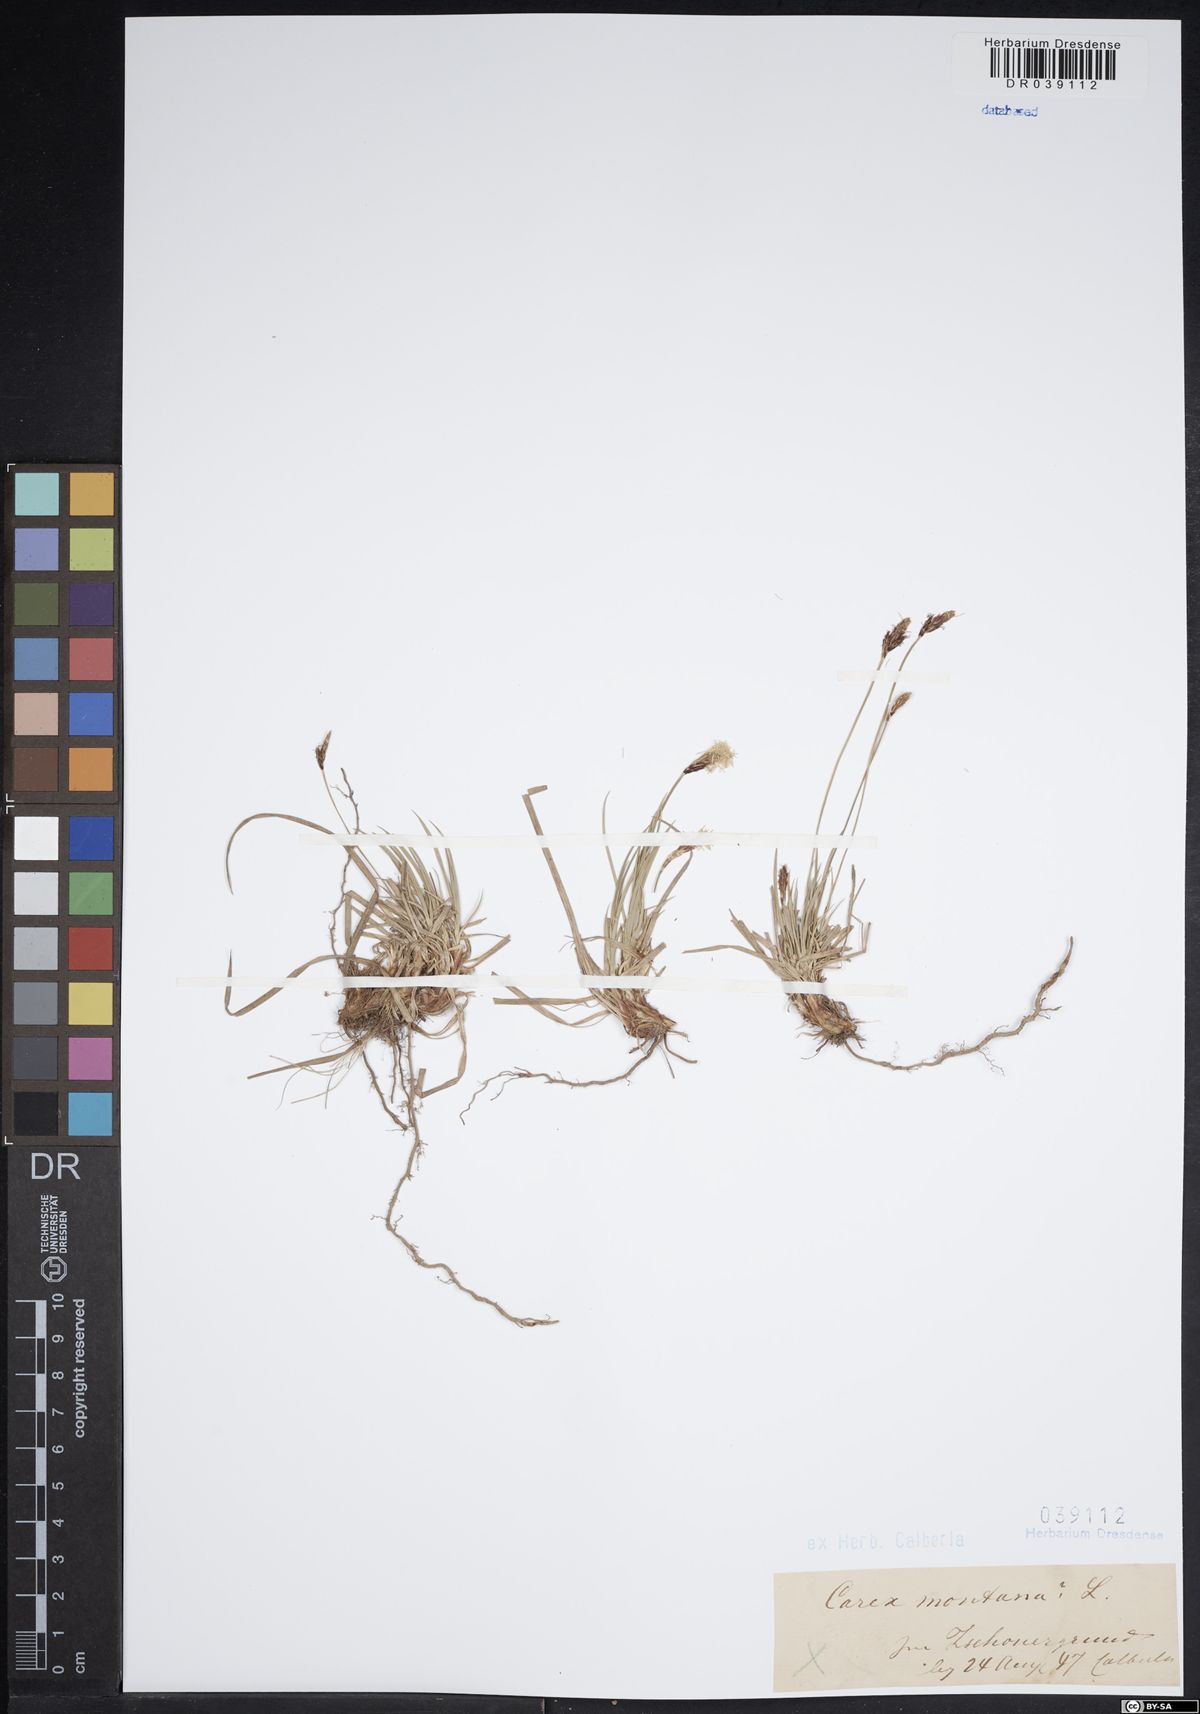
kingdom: Plantae
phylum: Tracheophyta
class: Liliopsida
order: Poales
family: Cyperaceae
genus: Carex
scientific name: Carex montana
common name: Soft-leaved sedge
